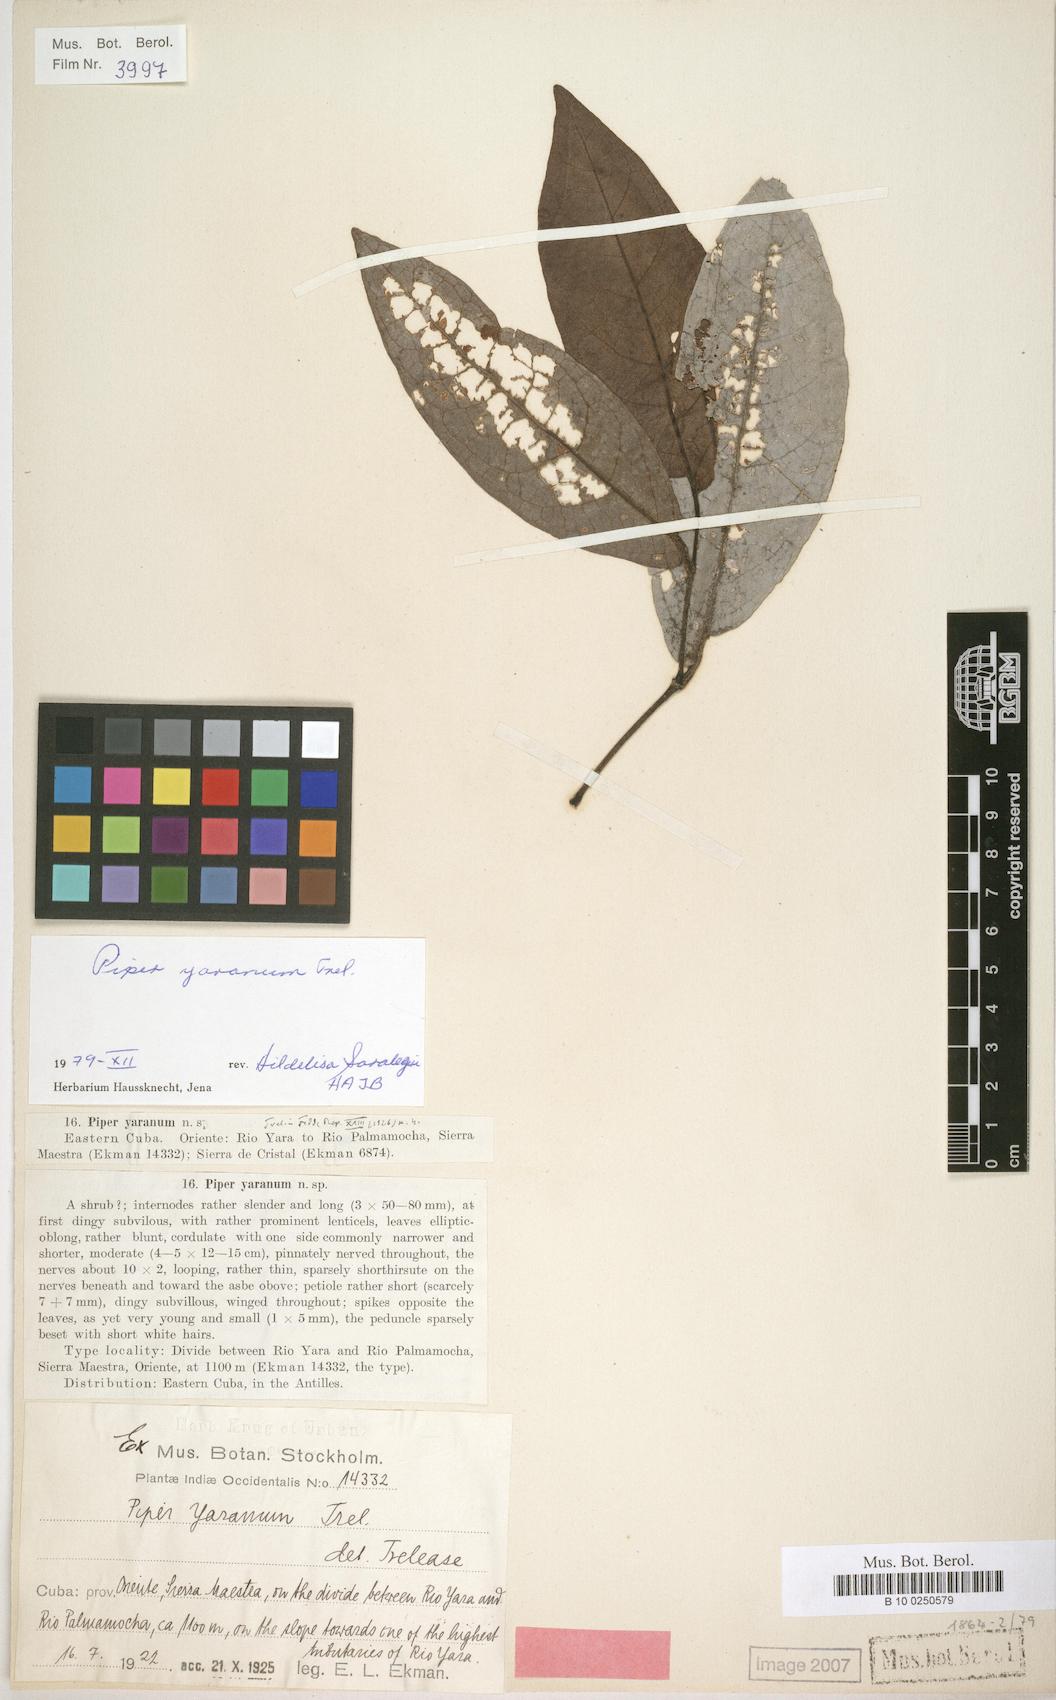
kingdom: Plantae
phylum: Tracheophyta
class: Magnoliopsida
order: Piperales
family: Piperaceae
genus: Piper
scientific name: Piper arboreum
